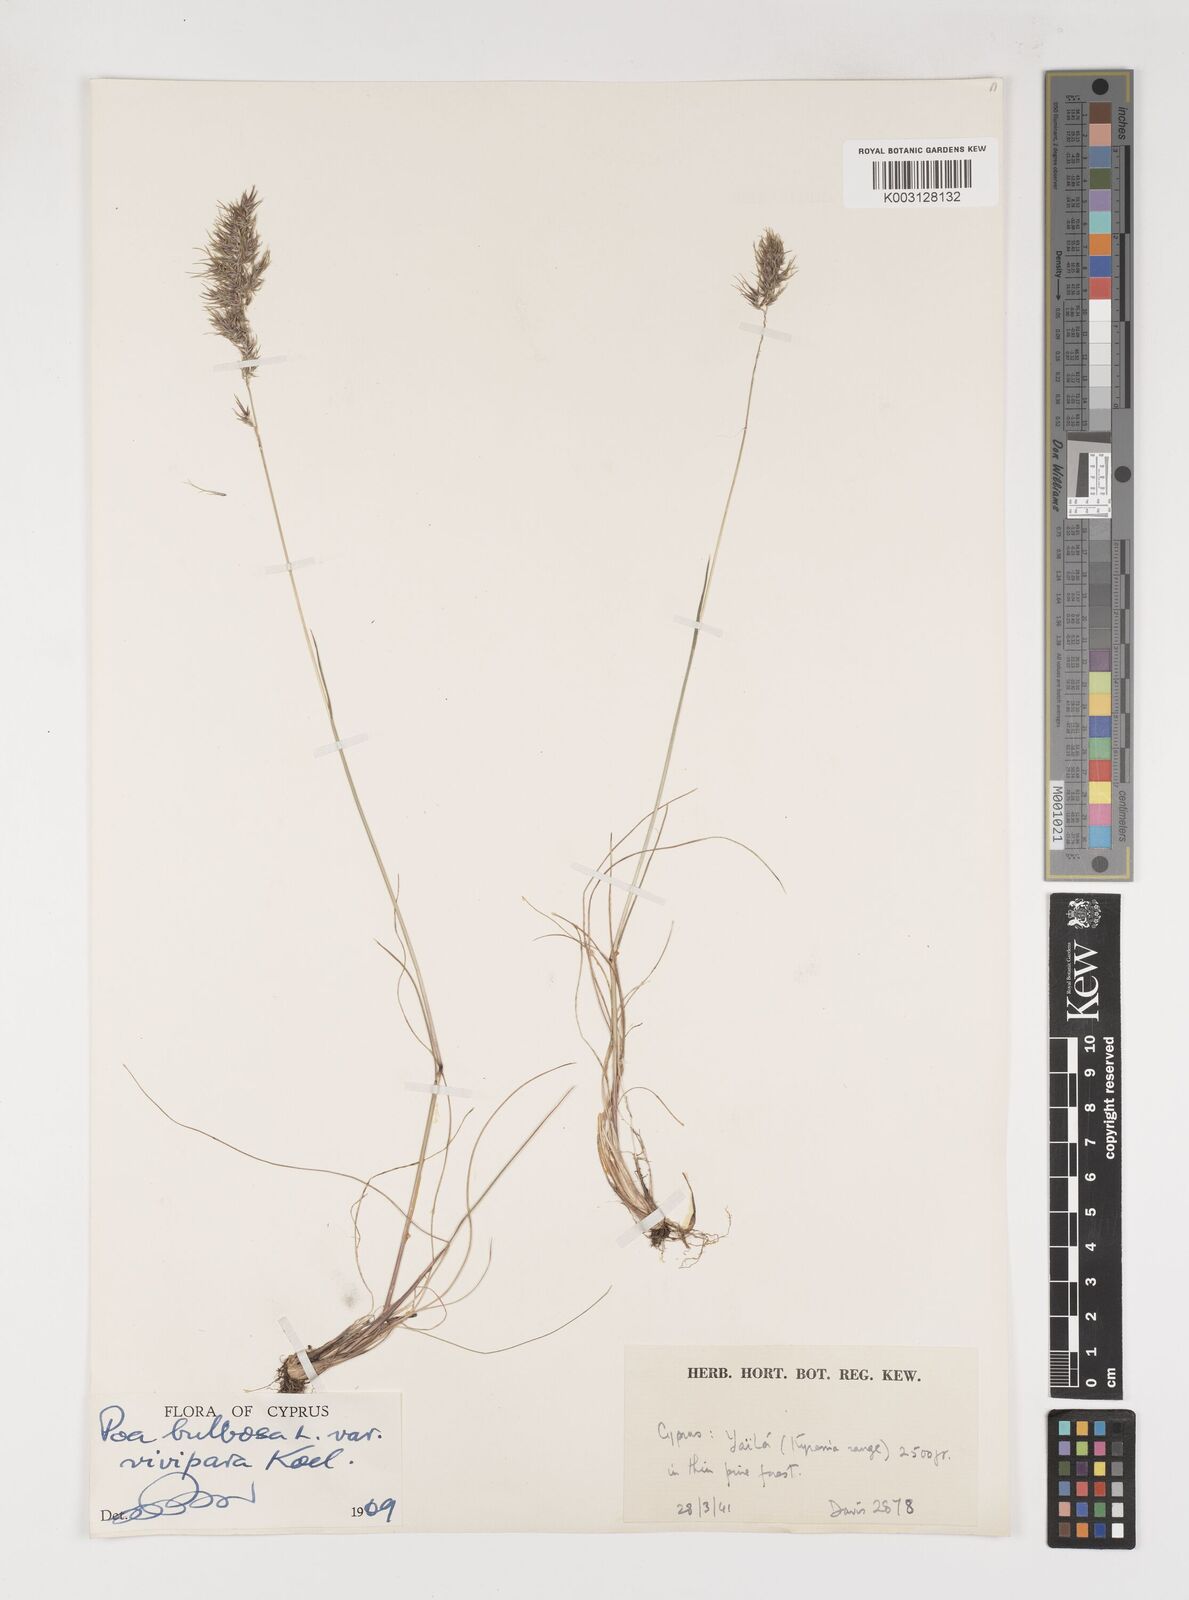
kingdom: Plantae
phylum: Tracheophyta
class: Liliopsida
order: Poales
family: Poaceae
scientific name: Poaceae
